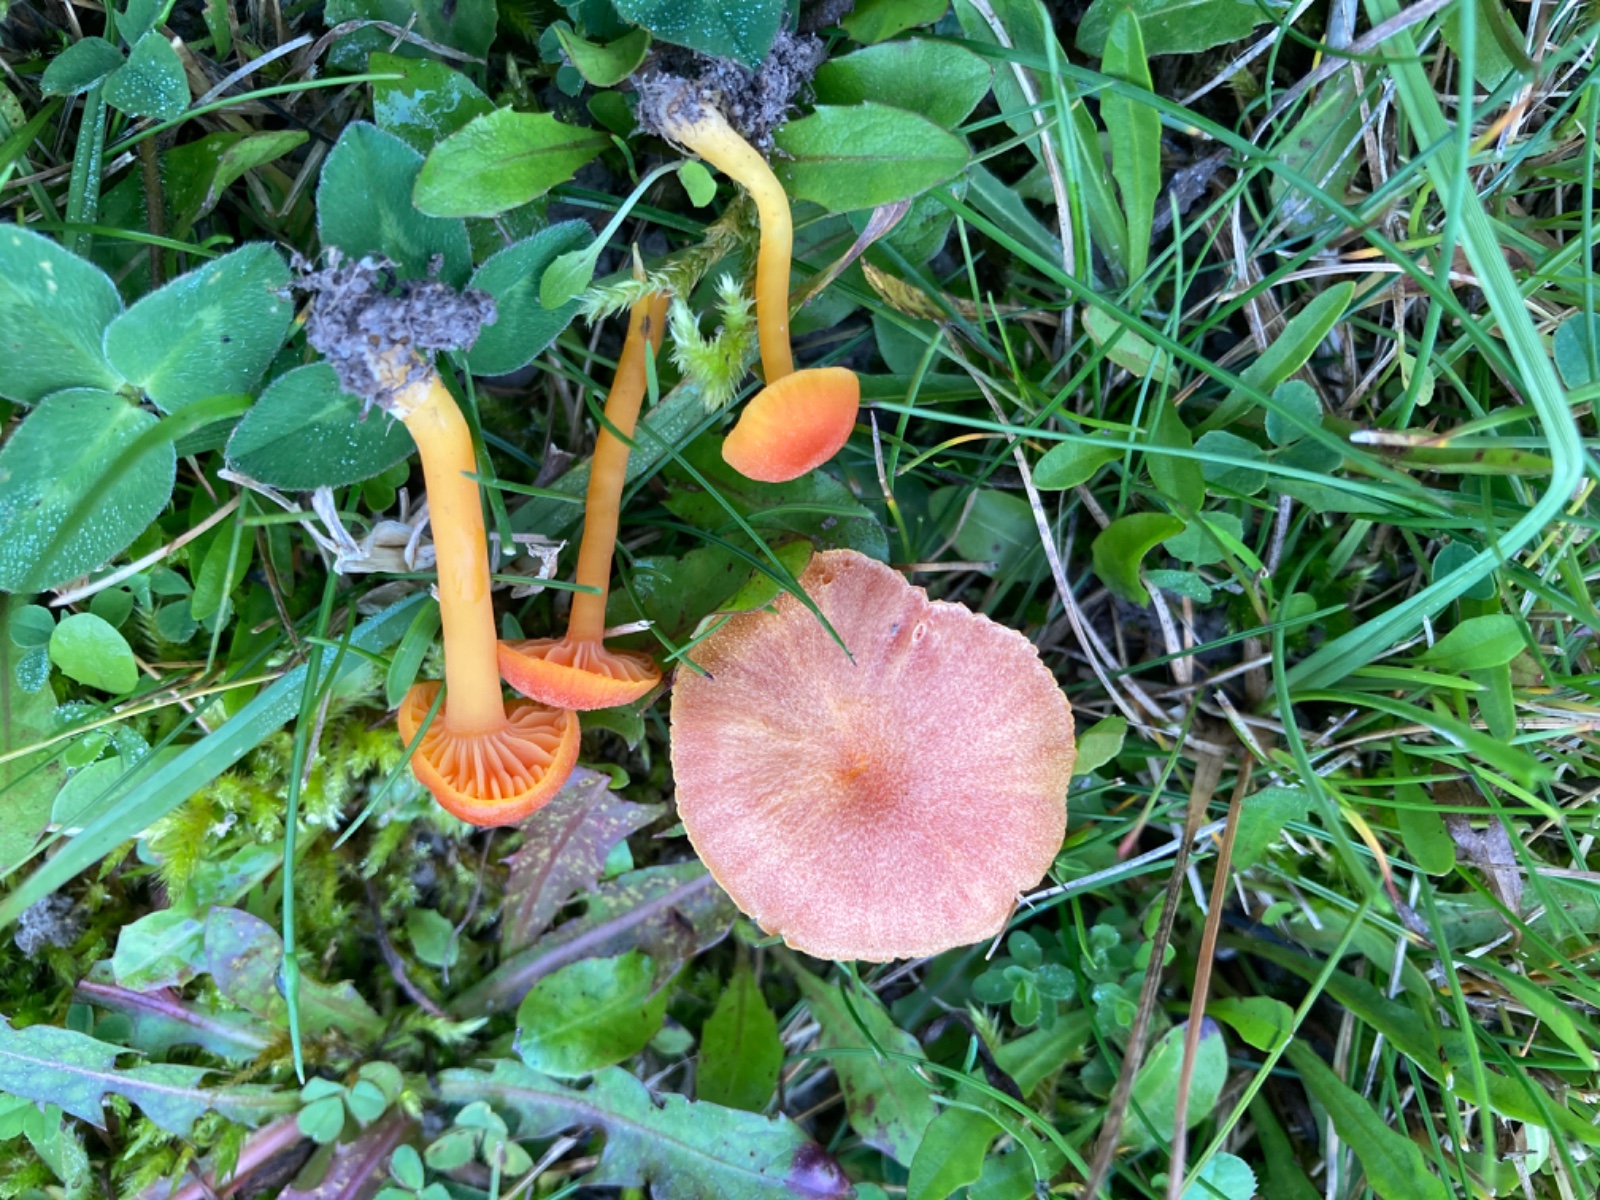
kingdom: Fungi
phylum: Basidiomycota
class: Agaricomycetes
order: Agaricales
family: Hygrophoraceae
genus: Hygrocybe
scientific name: Hygrocybe calciphila
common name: kalk-vokshat
